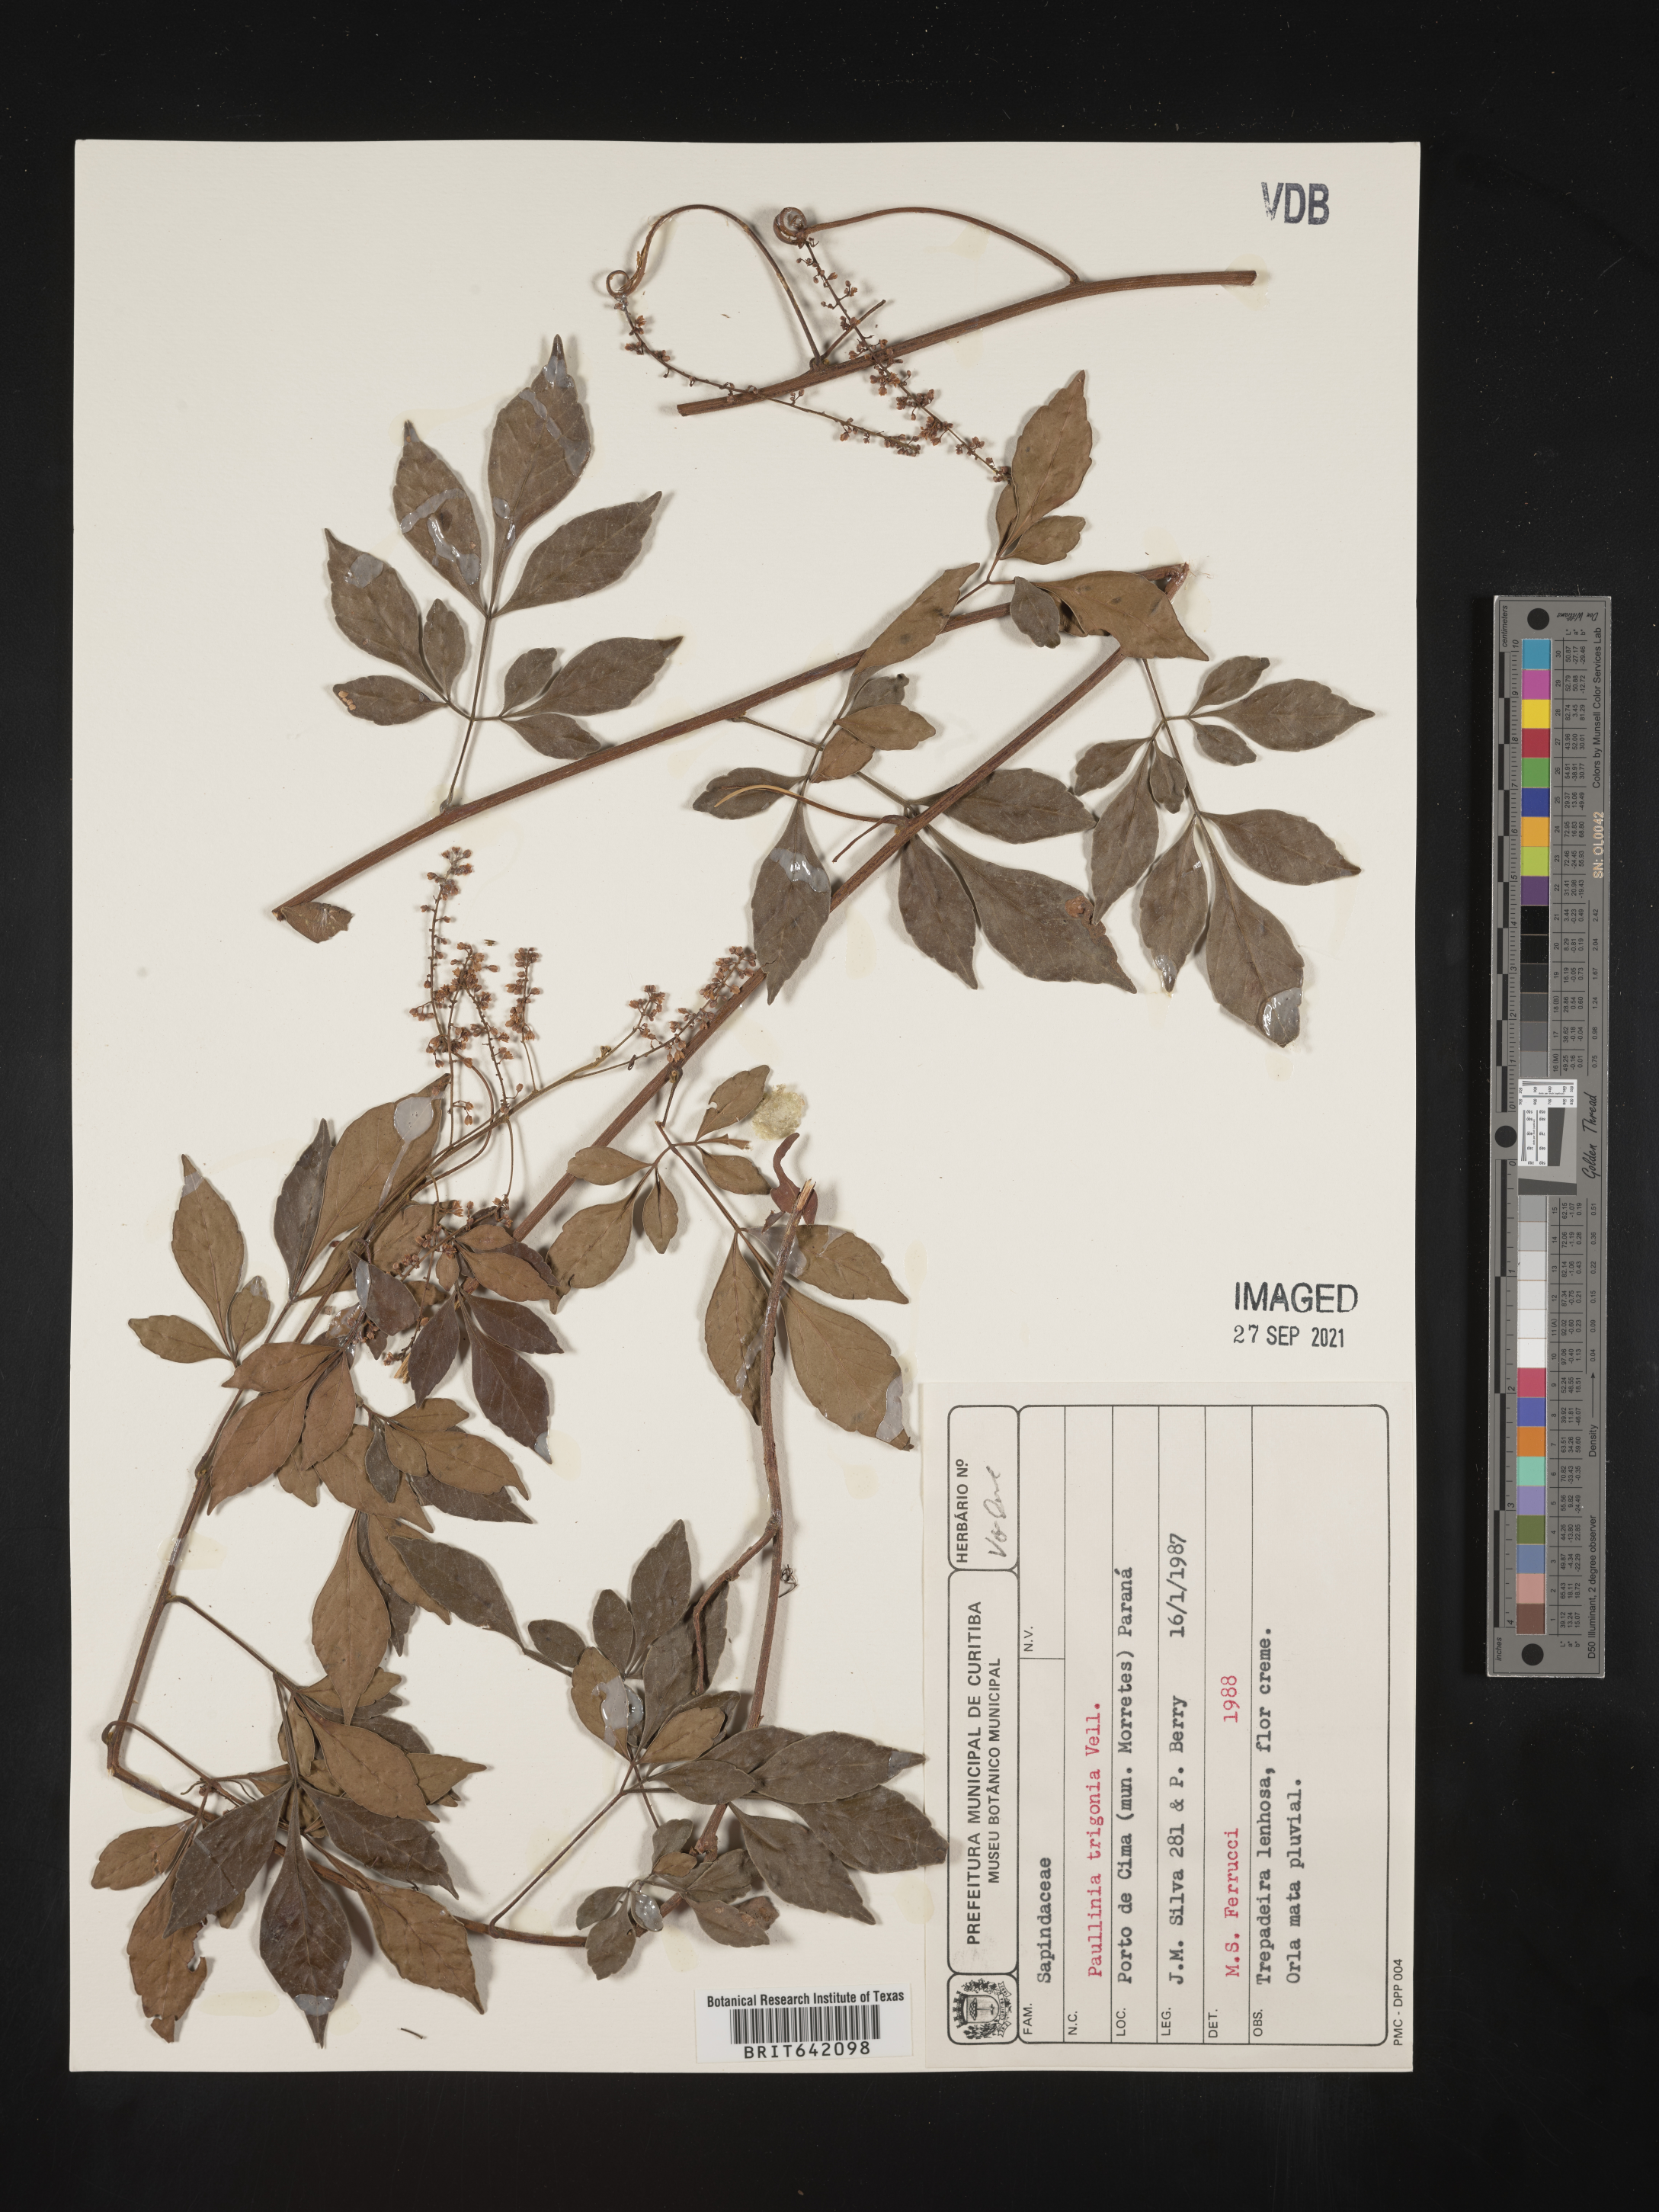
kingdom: Plantae
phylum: Tracheophyta
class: Magnoliopsida
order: Sapindales
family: Sapindaceae
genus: Paullinia
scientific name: Paullinia
